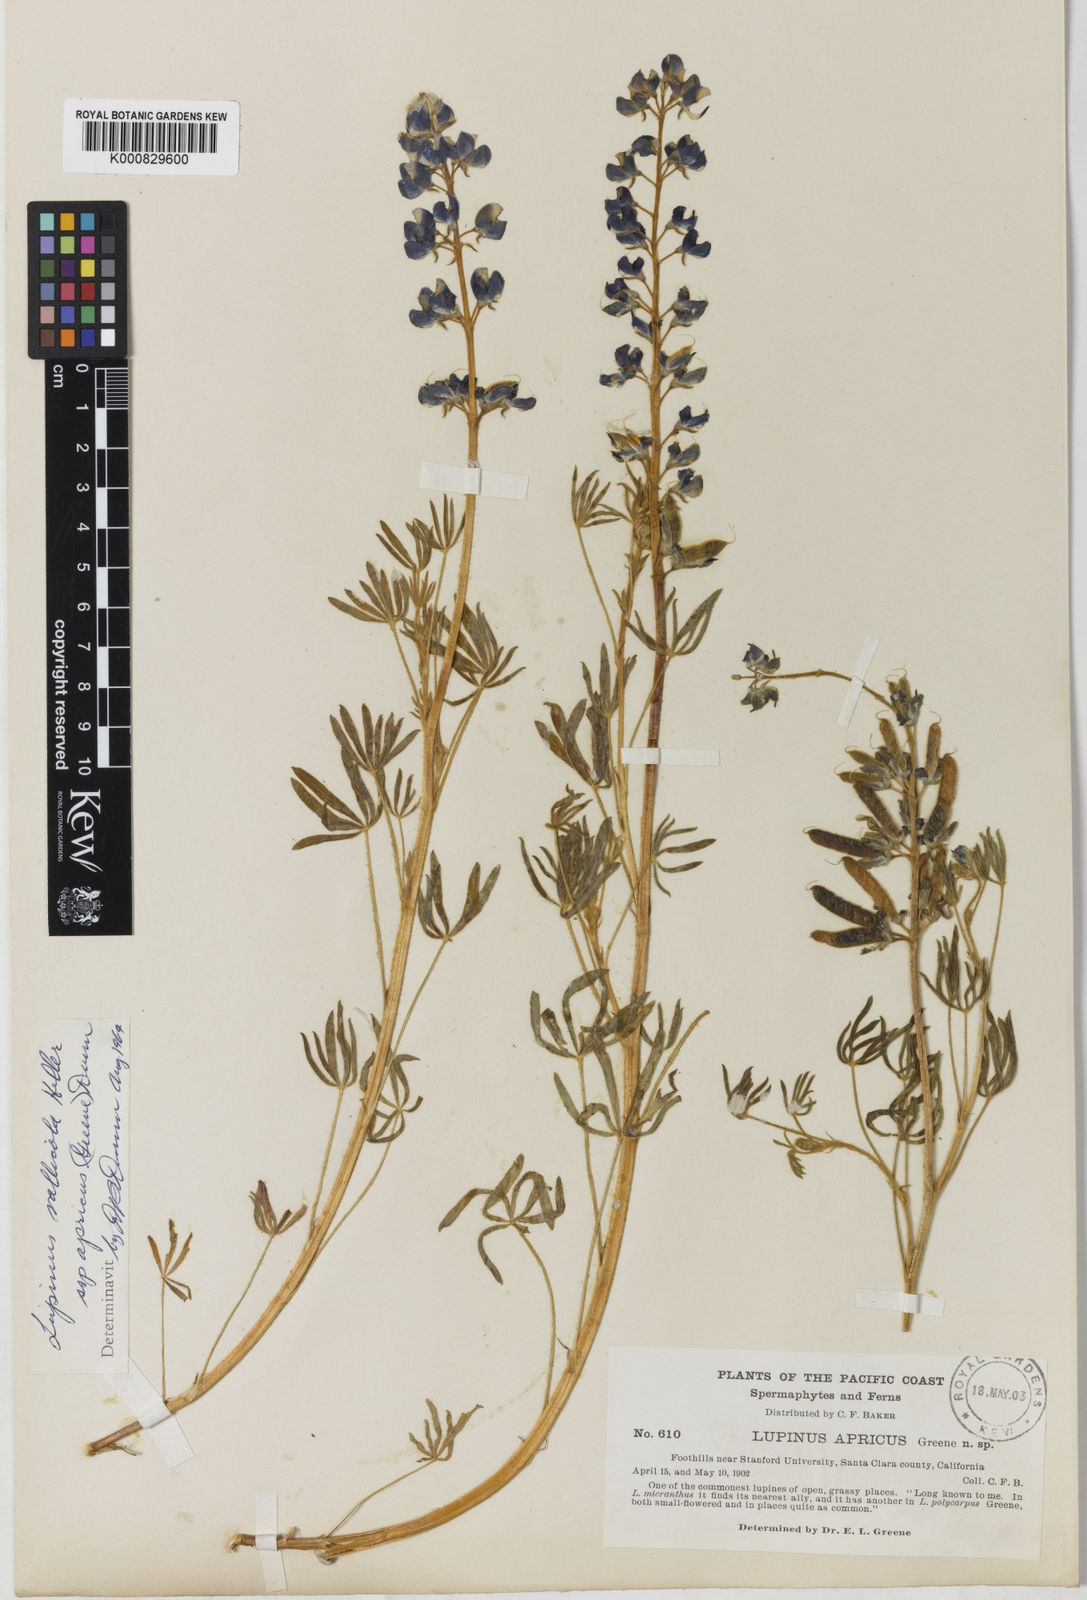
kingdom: Plantae
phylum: Tracheophyta
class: Magnoliopsida
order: Fabales
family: Fabaceae
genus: Lupinus
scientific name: Lupinus vallicola
